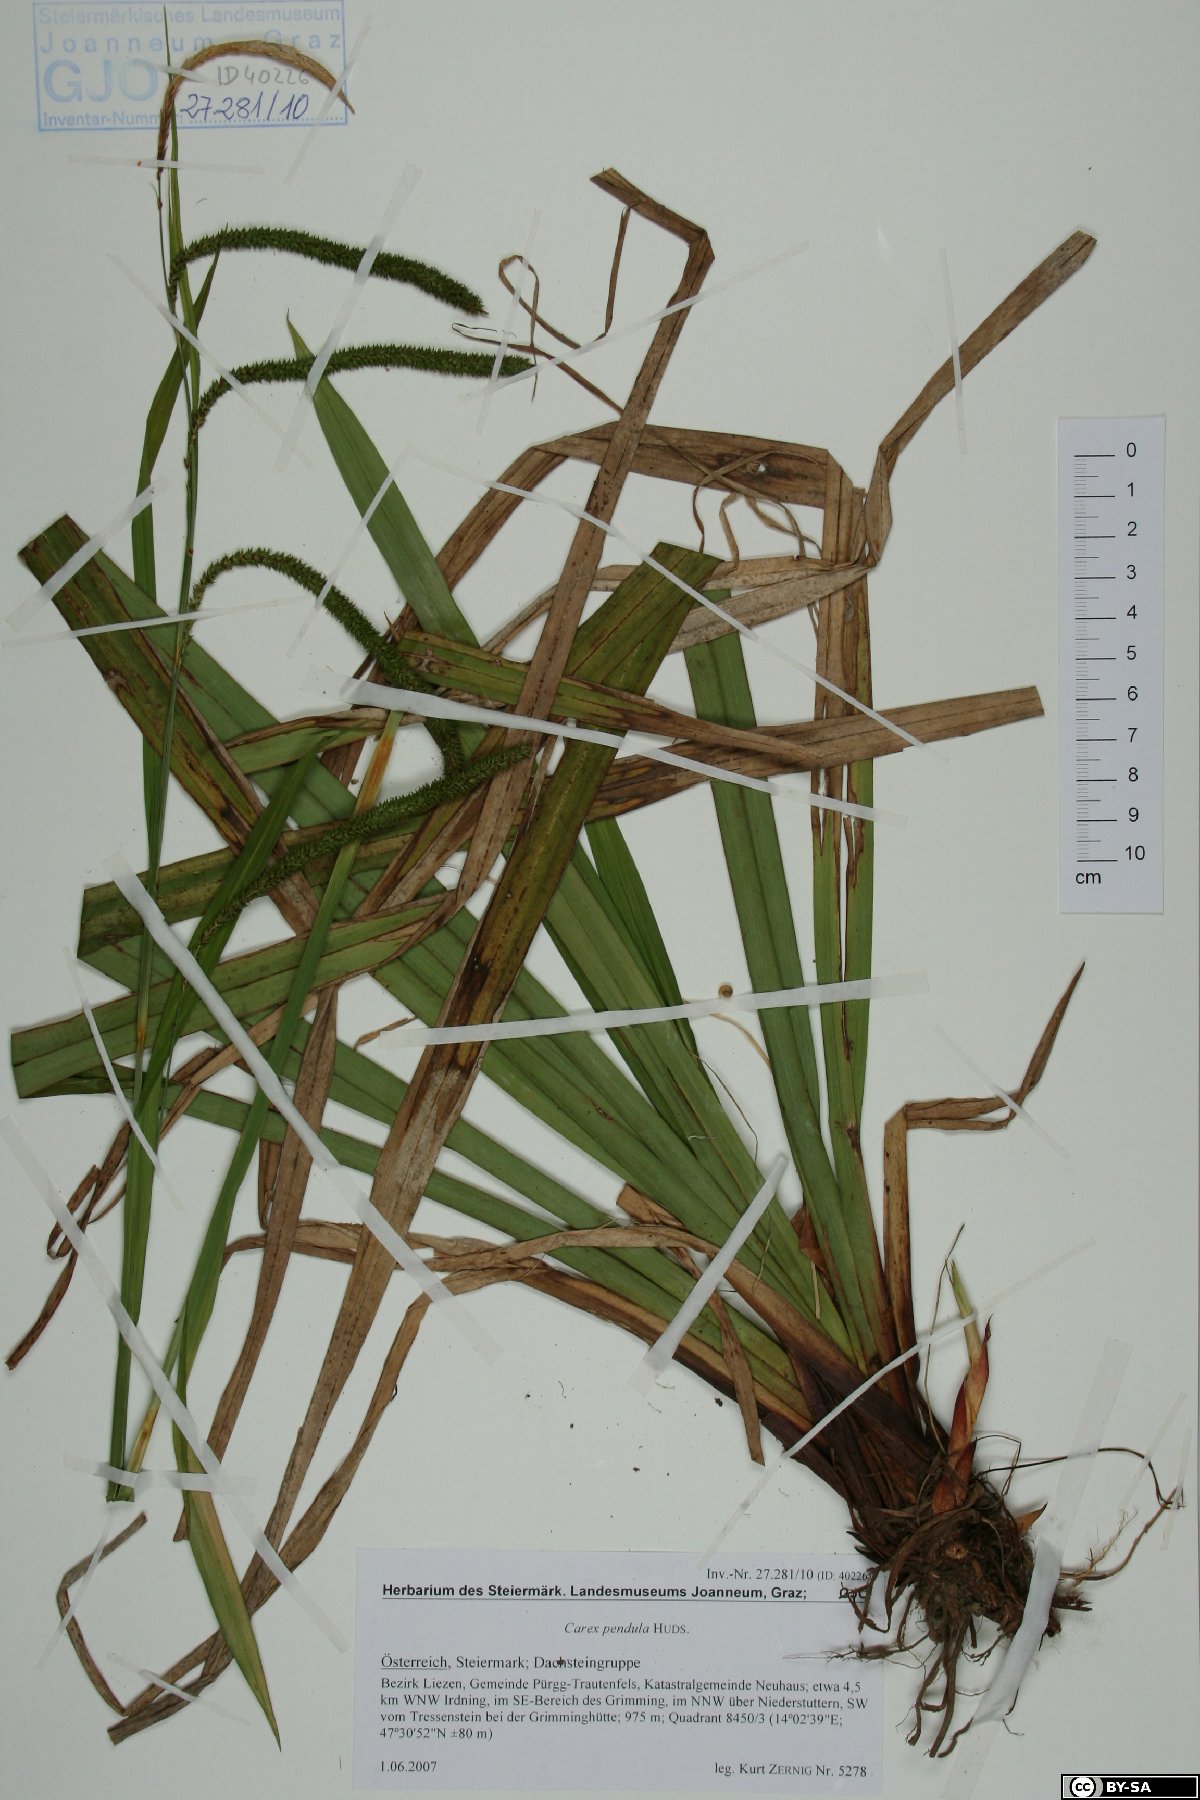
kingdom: Plantae
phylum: Tracheophyta
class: Liliopsida
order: Poales
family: Cyperaceae
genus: Carex
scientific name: Carex pendula
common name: Pendulous sedge
